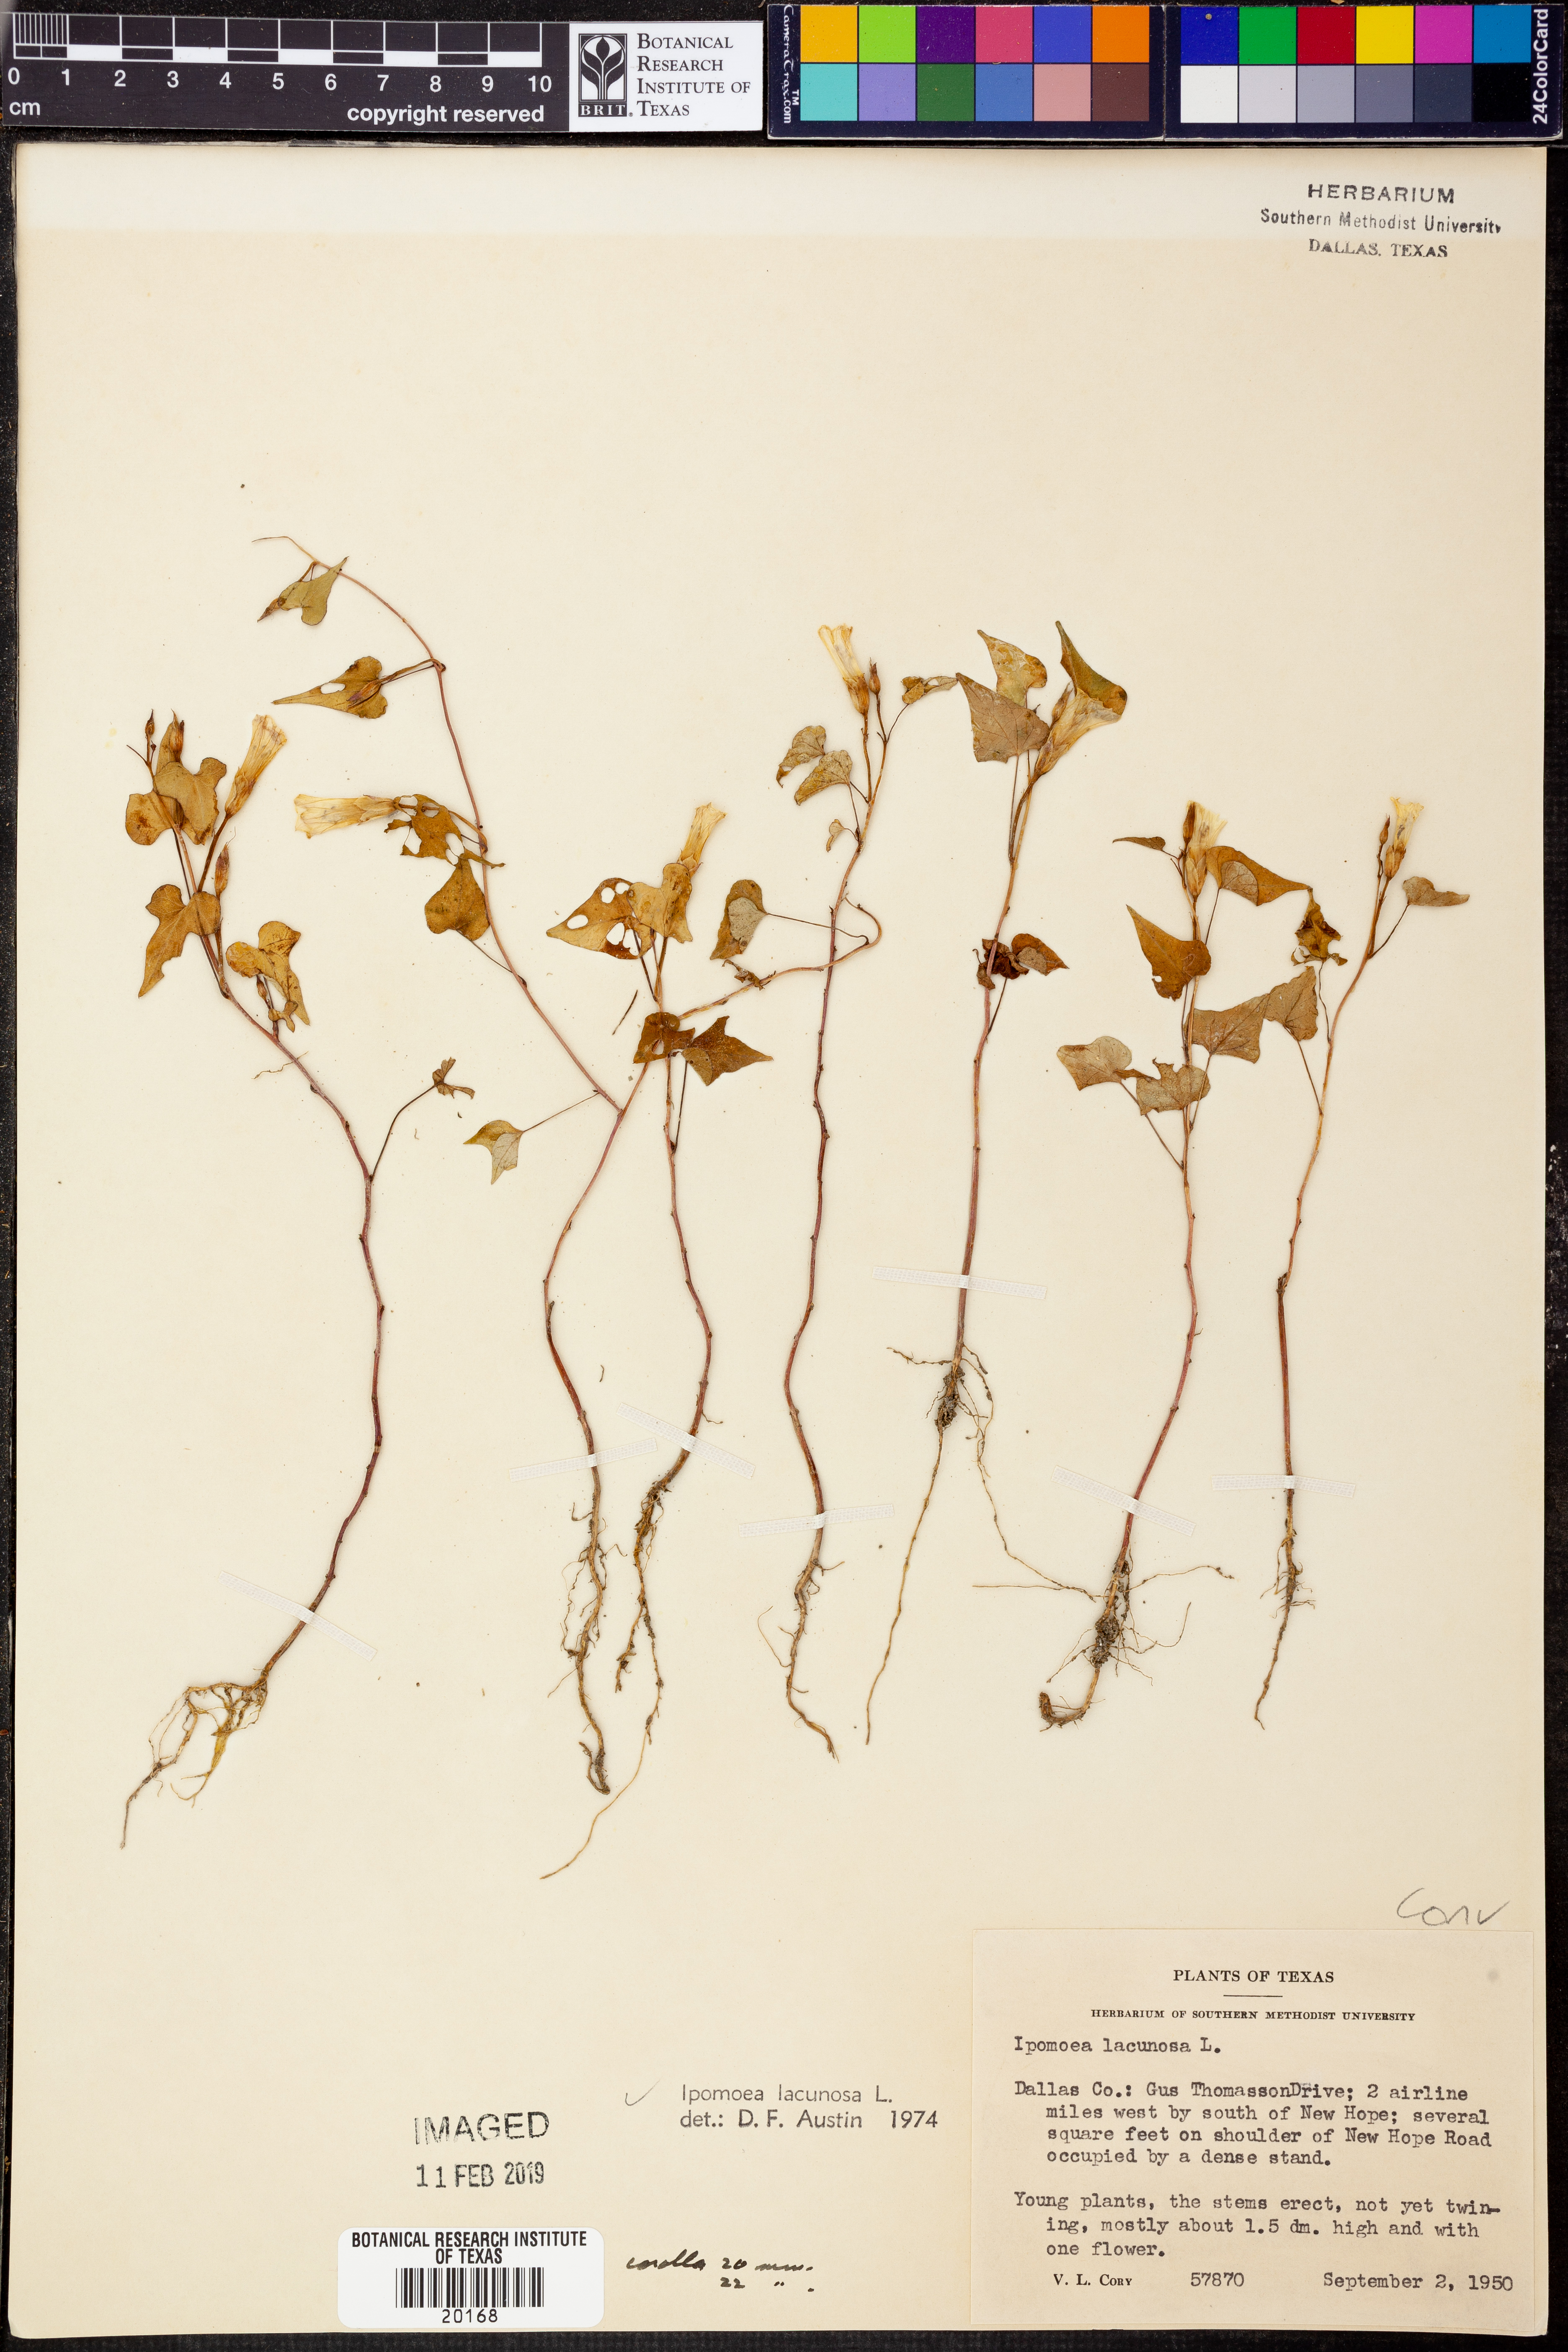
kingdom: Plantae
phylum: Tracheophyta
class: Magnoliopsida
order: Solanales
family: Convolvulaceae
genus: Ipomoea
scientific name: Ipomoea lacunosa
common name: White morning-glory
